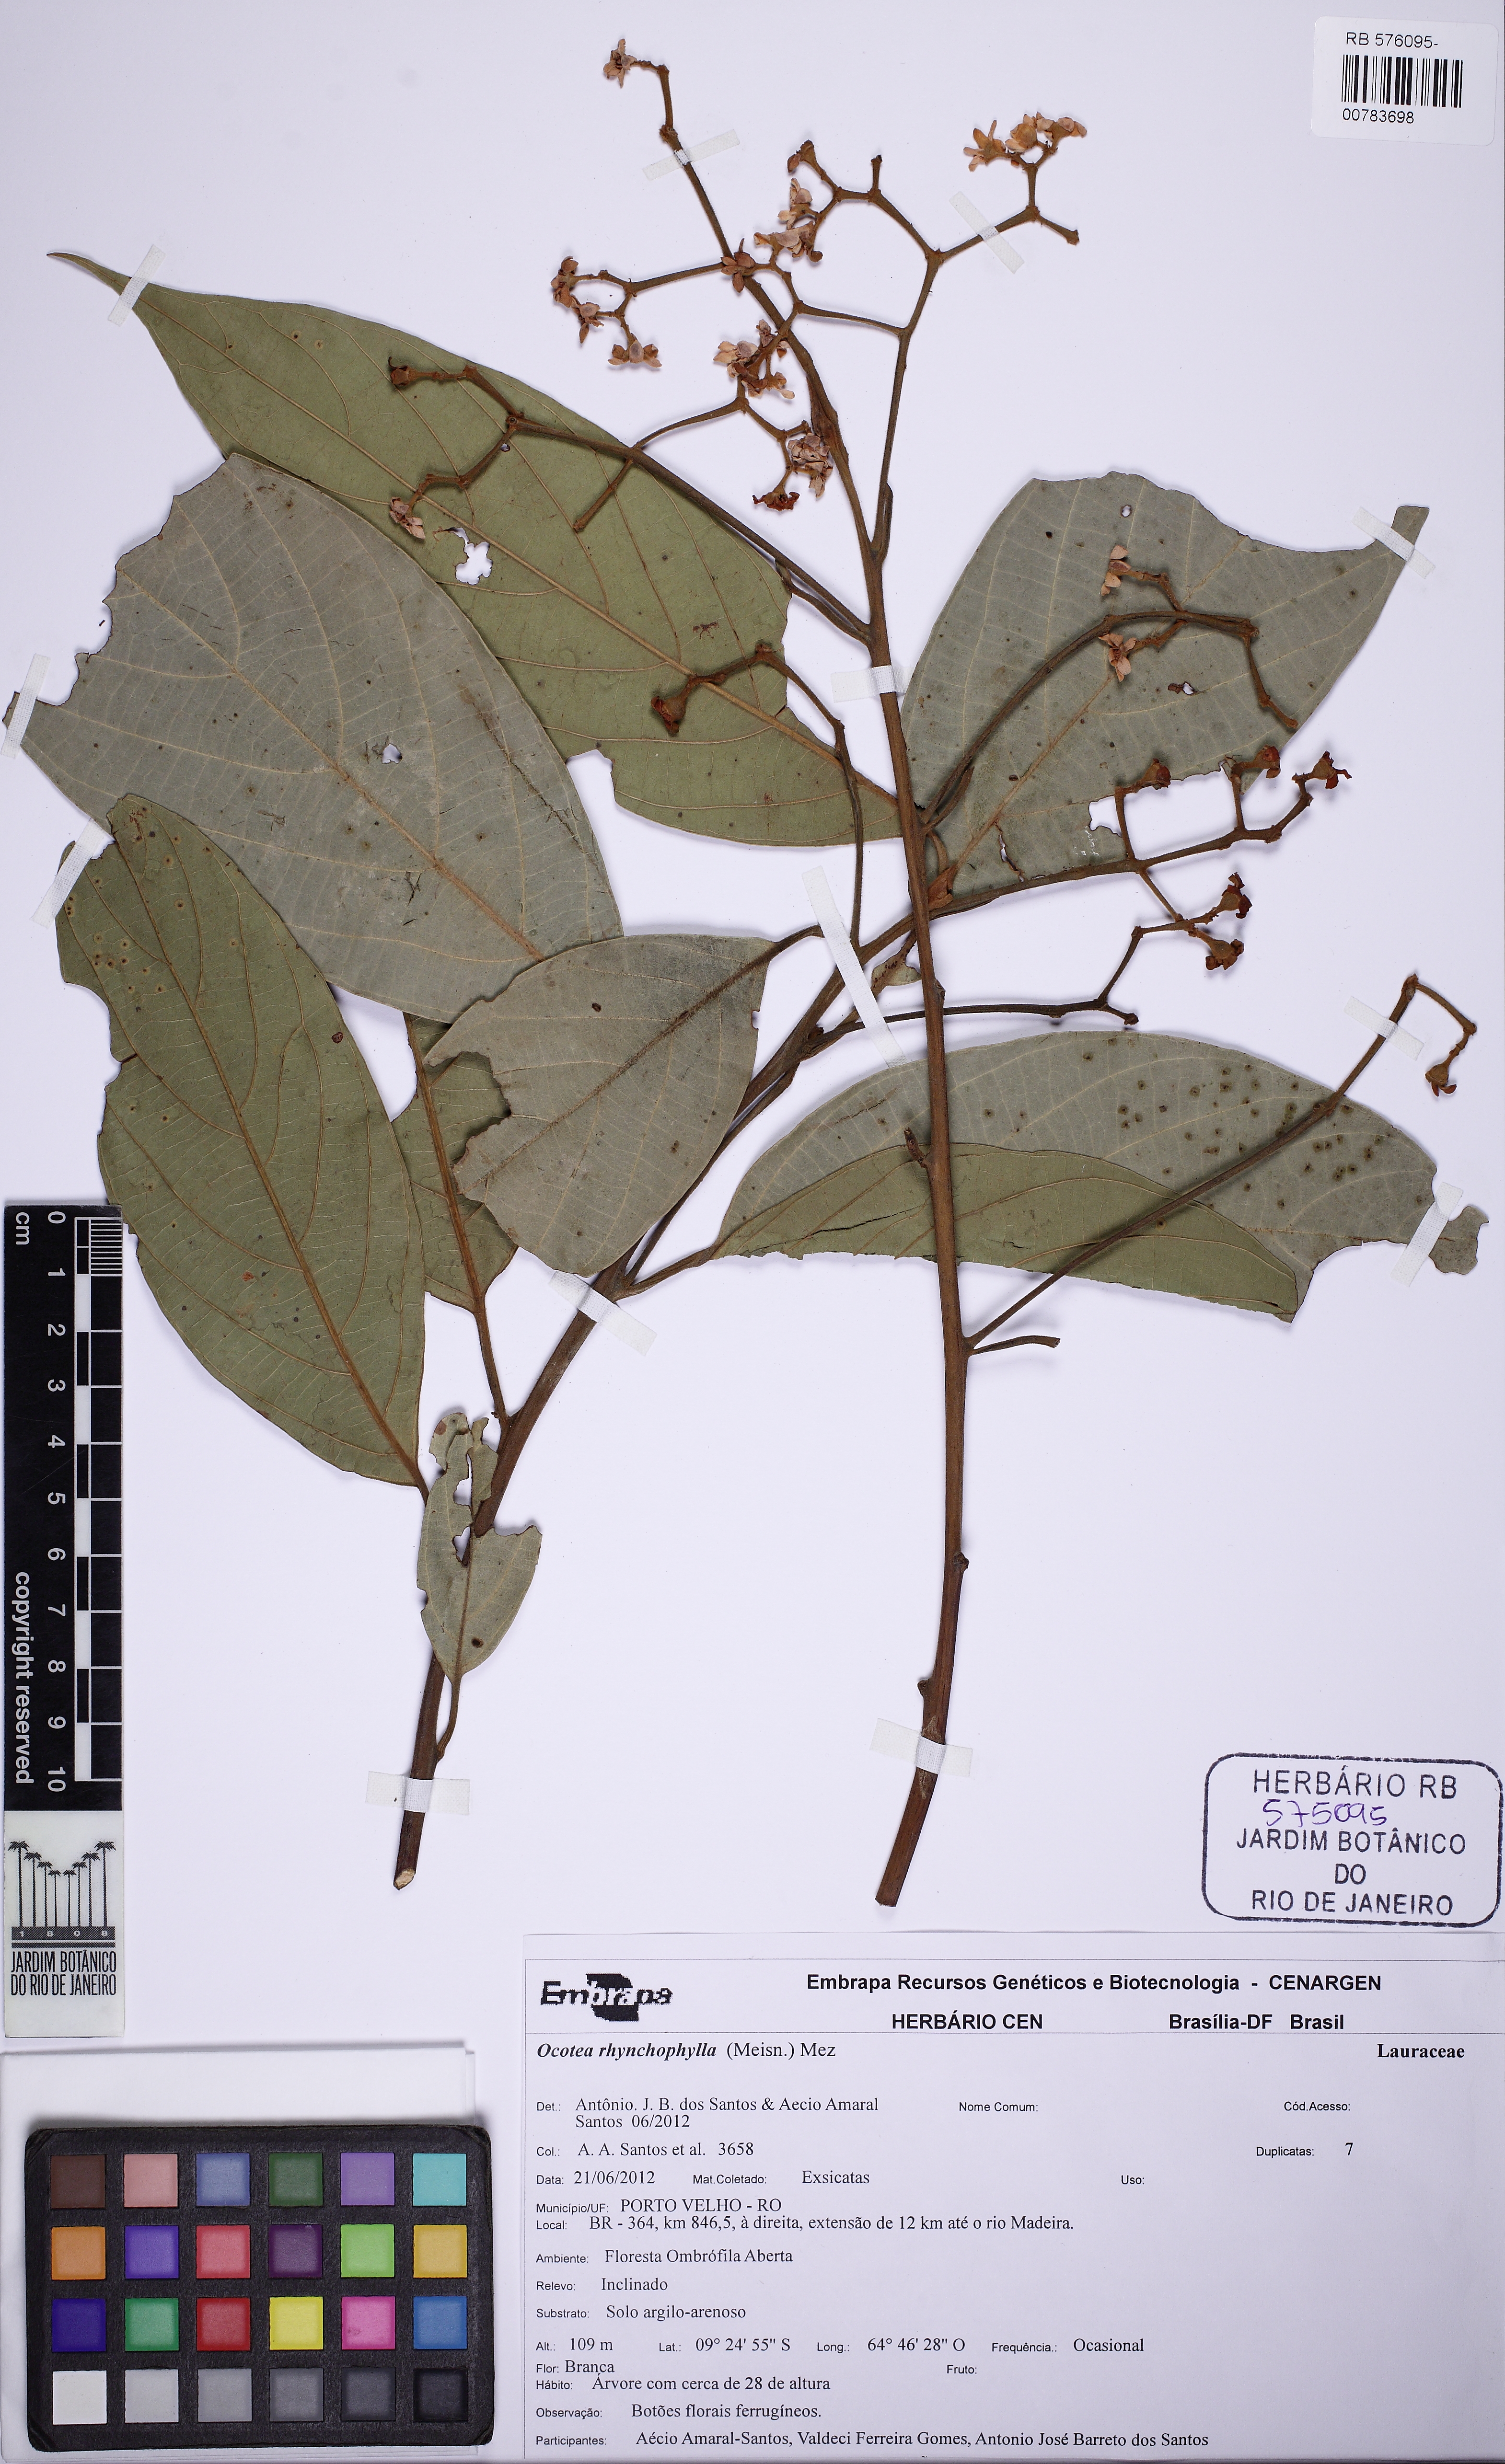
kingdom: Plantae
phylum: Tracheophyta
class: Magnoliopsida
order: Laurales
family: Lauraceae
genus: Ocotea
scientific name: Ocotea aciphylla
